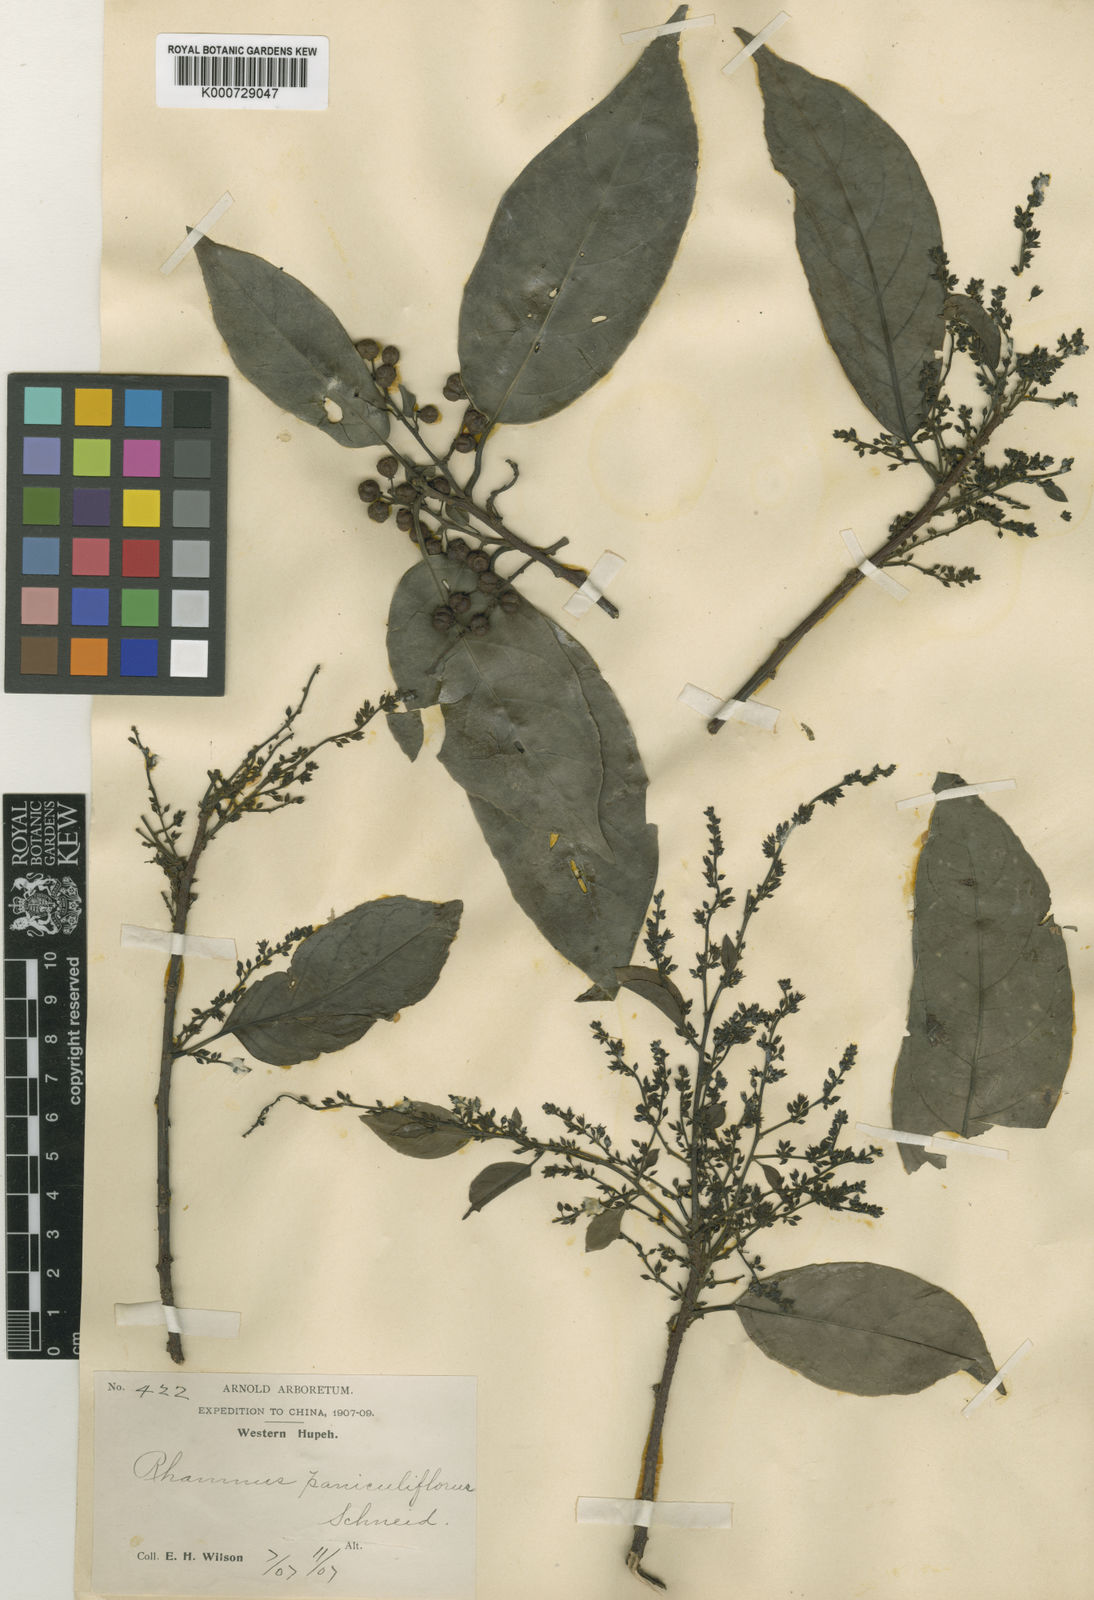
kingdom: Plantae
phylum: Tracheophyta
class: Magnoliopsida
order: Rosales
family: Rhamnaceae
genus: Rhamnus
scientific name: Rhamnus napalensis
